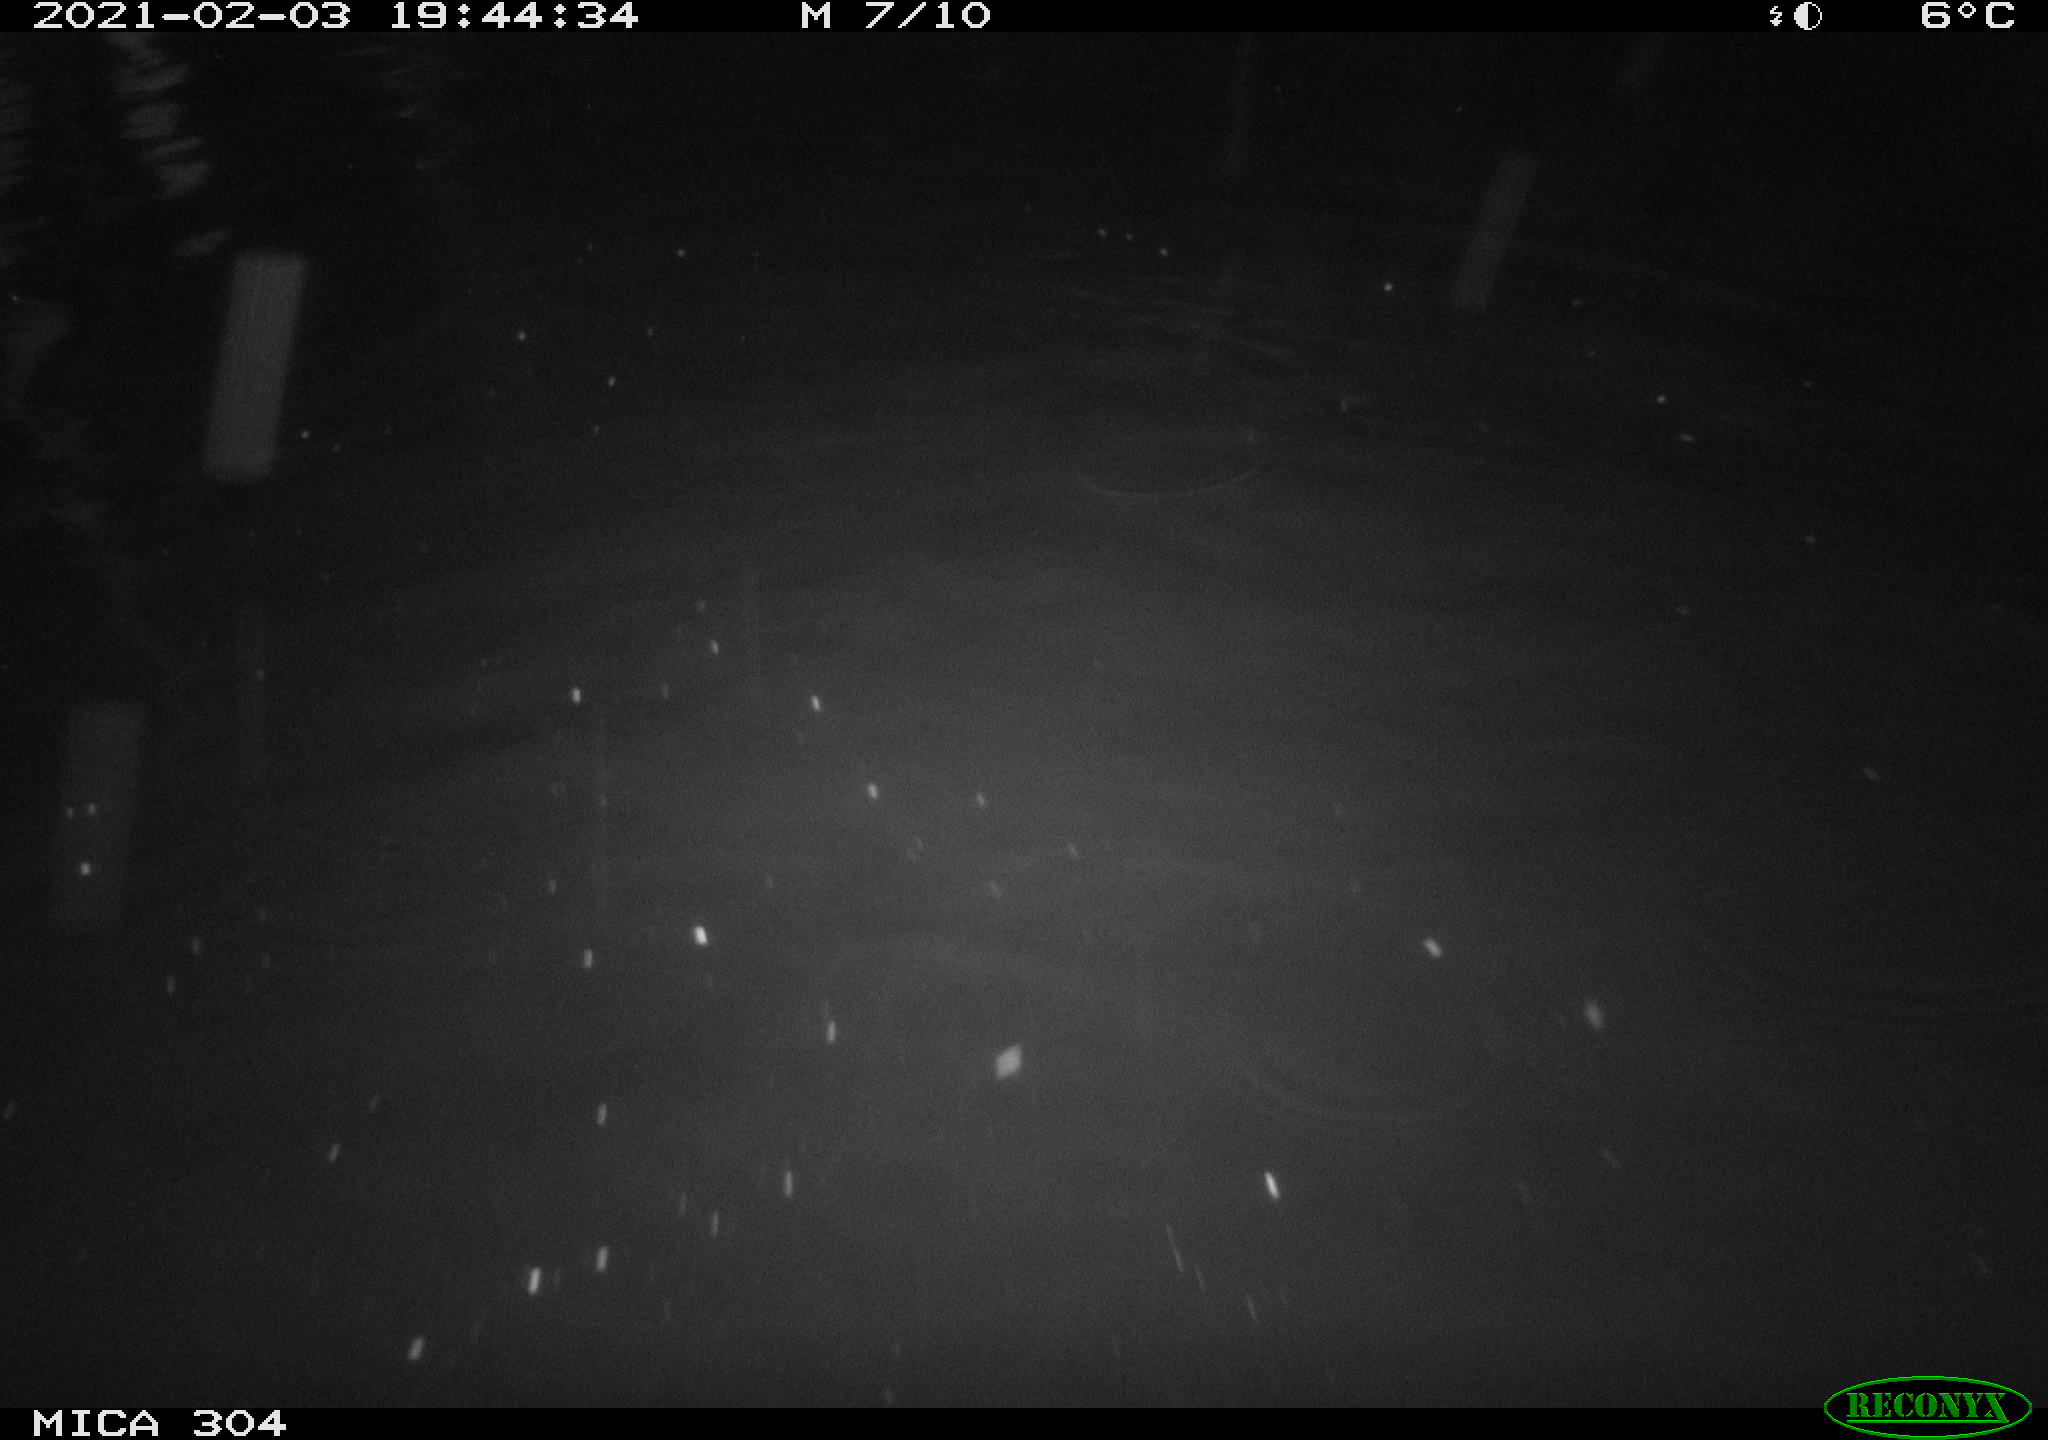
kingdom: Animalia
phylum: Chordata
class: Mammalia
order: Rodentia
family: Cricetidae
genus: Ondatra
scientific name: Ondatra zibethicus
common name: Muskrat
